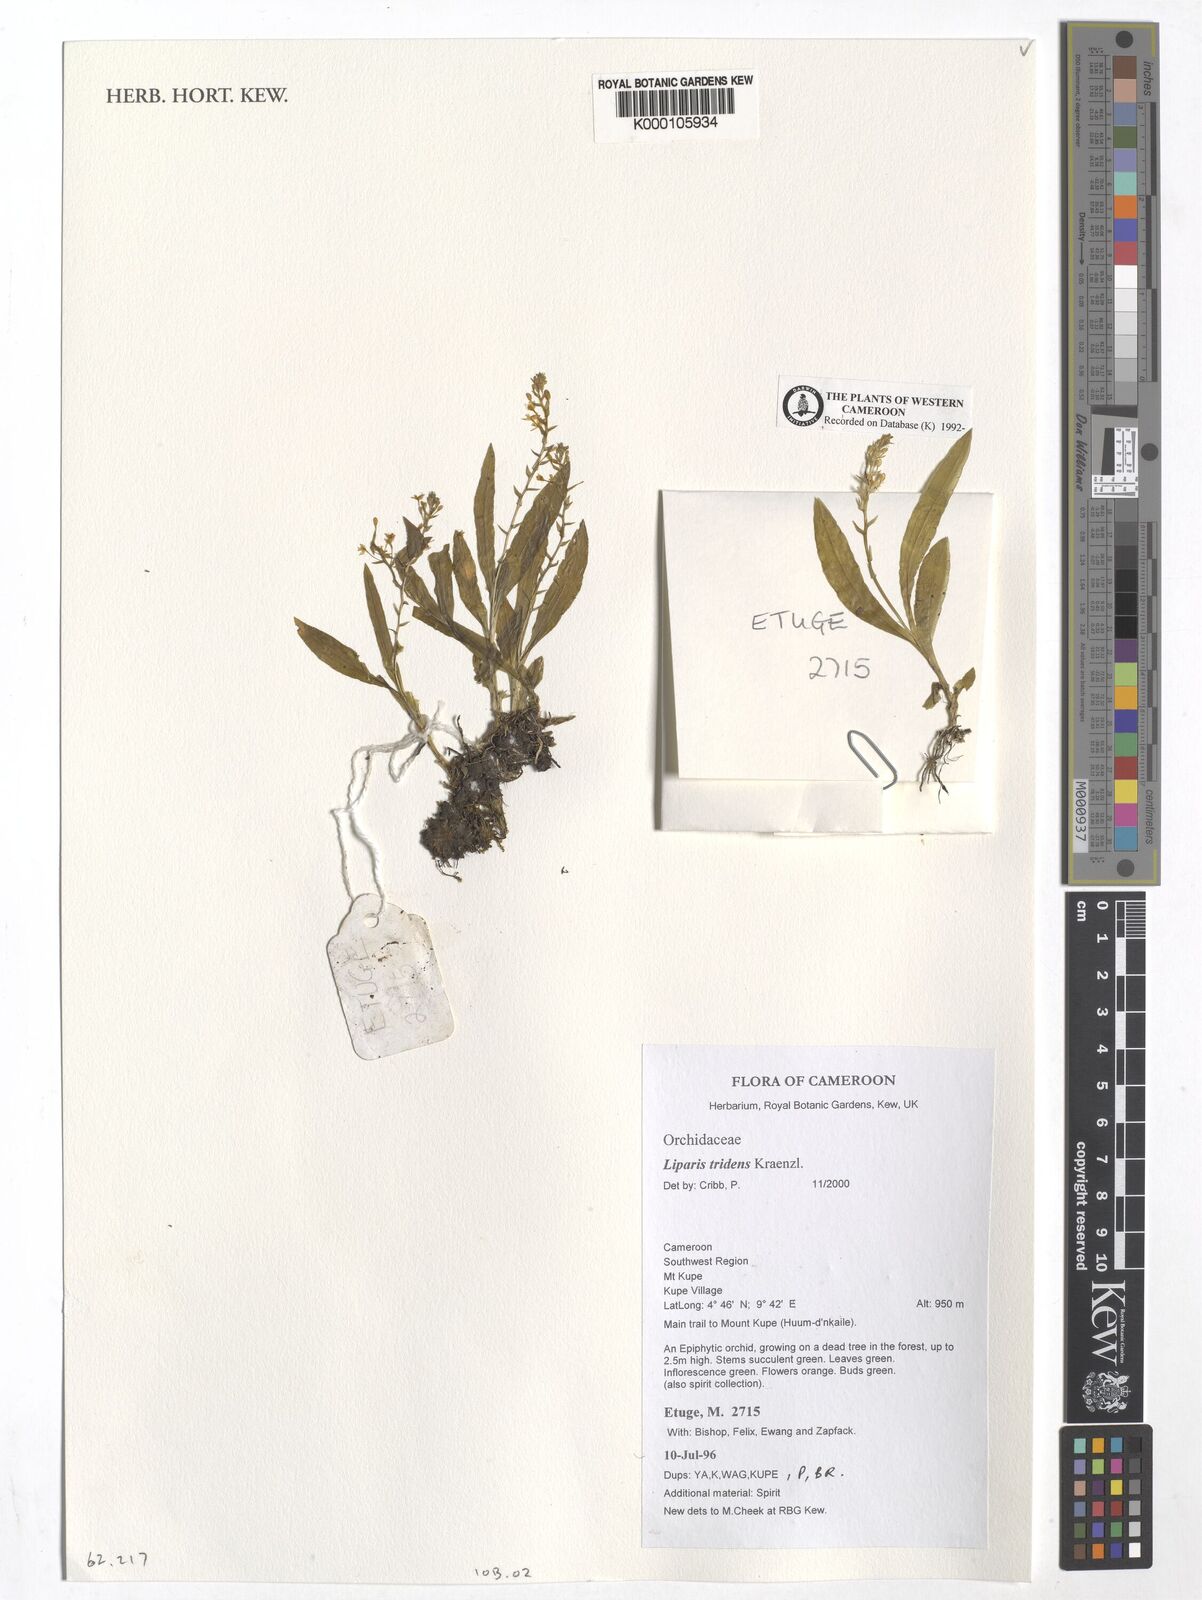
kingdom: Plantae
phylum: Tracheophyta
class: Liliopsida
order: Asparagales
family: Orchidaceae
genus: Liparis
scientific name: Liparis tridens
